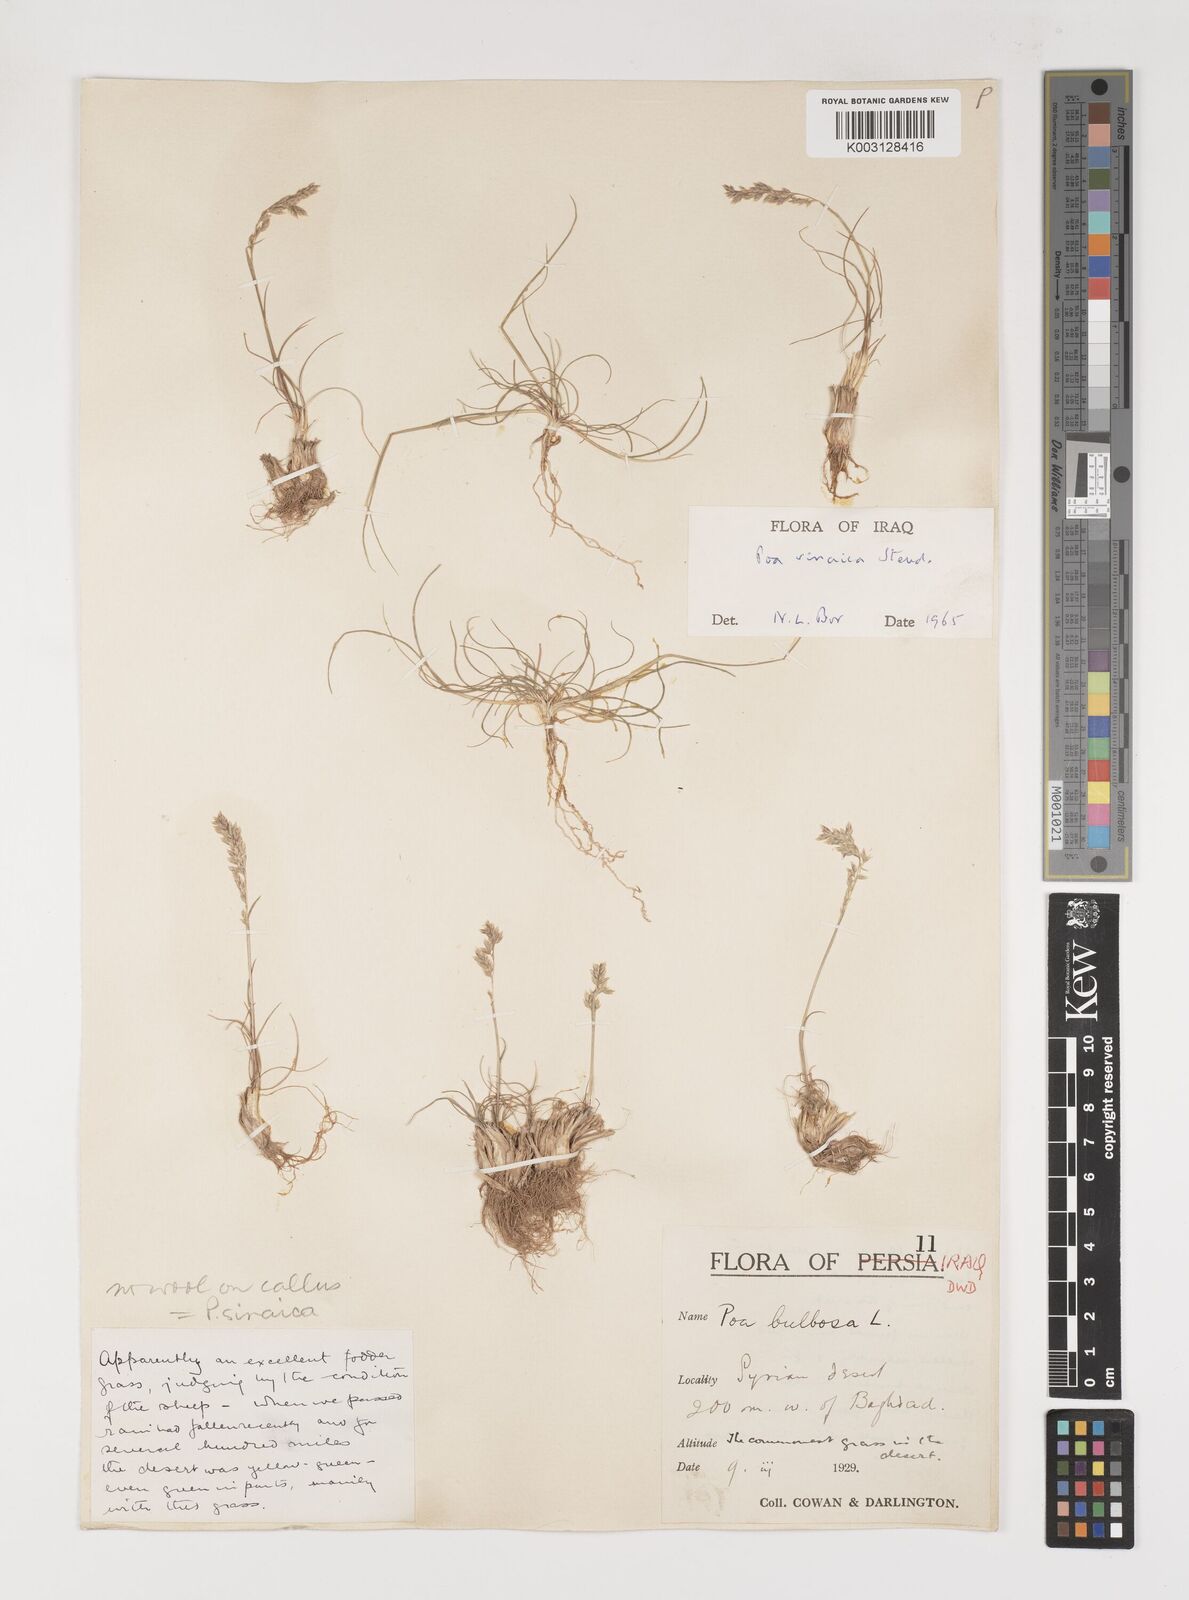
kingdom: Plantae
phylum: Tracheophyta
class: Liliopsida
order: Poales
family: Poaceae
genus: Poa
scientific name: Poa sinaica
